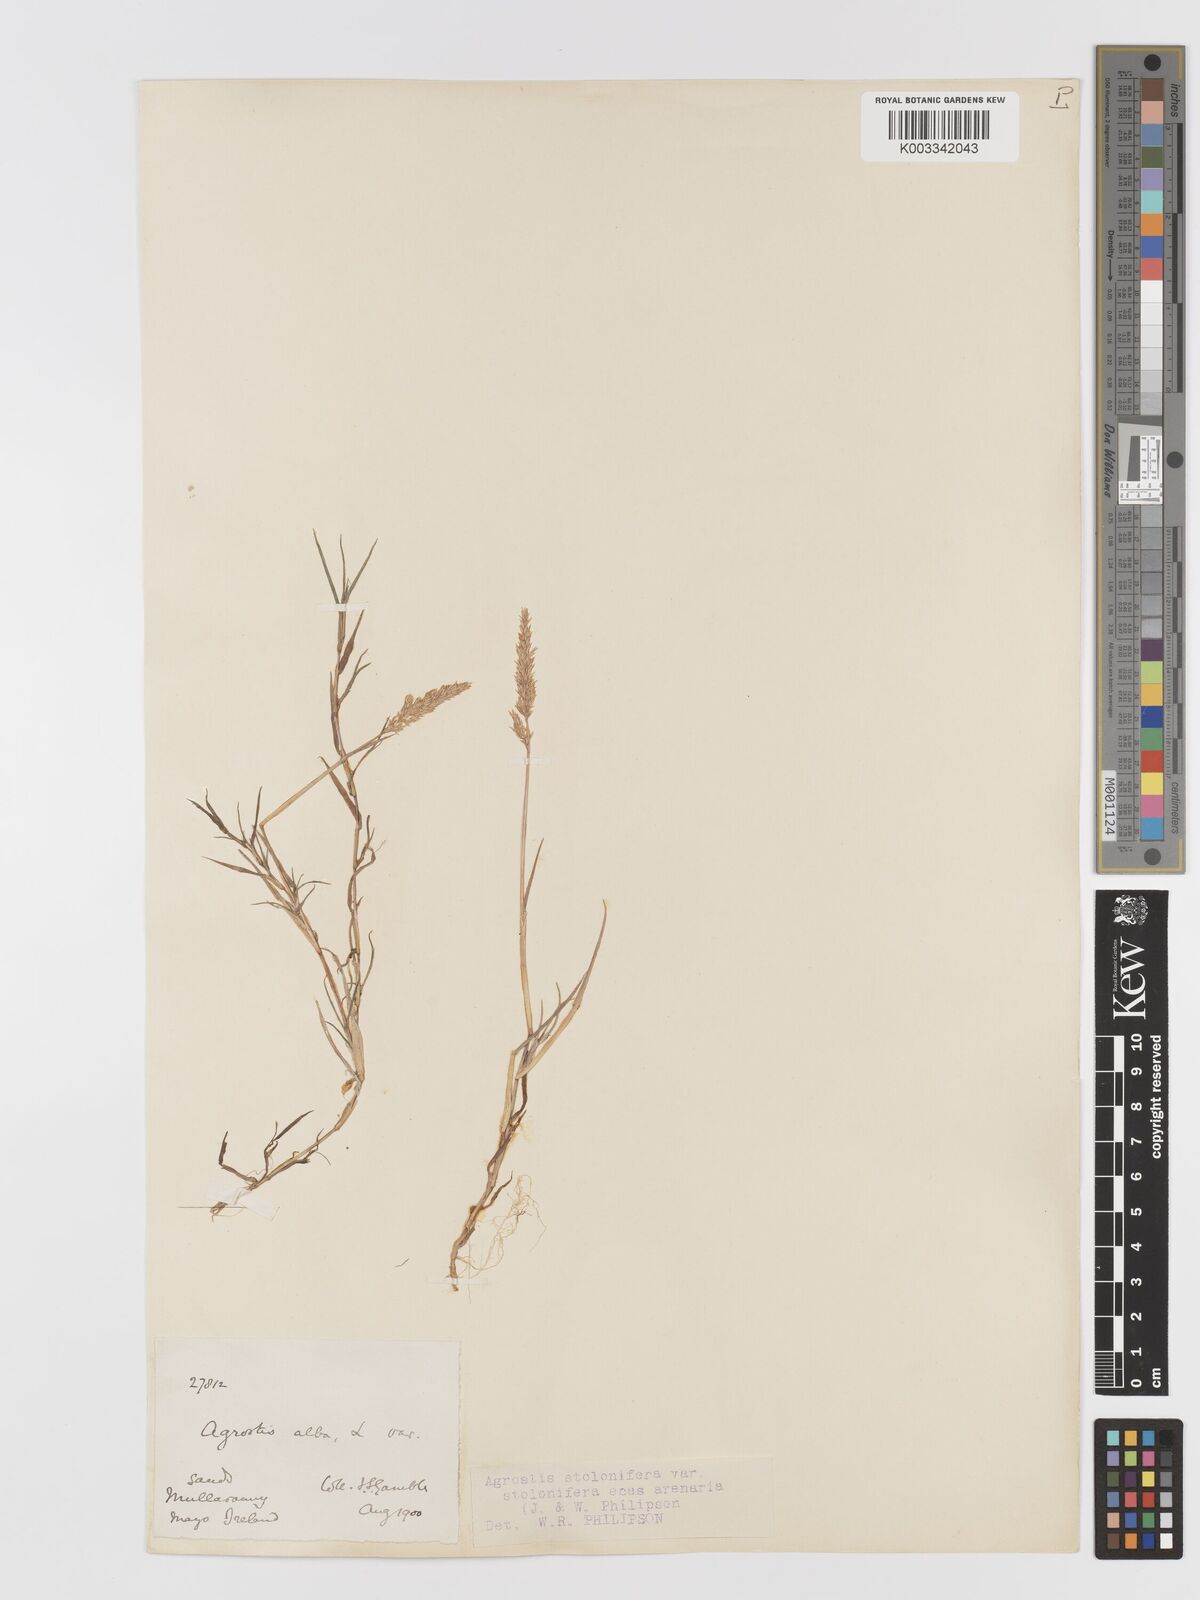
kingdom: Plantae
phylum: Tracheophyta
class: Liliopsida
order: Poales
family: Poaceae
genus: Agrostis
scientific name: Agrostis stolonifera
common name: Creeping bentgrass
